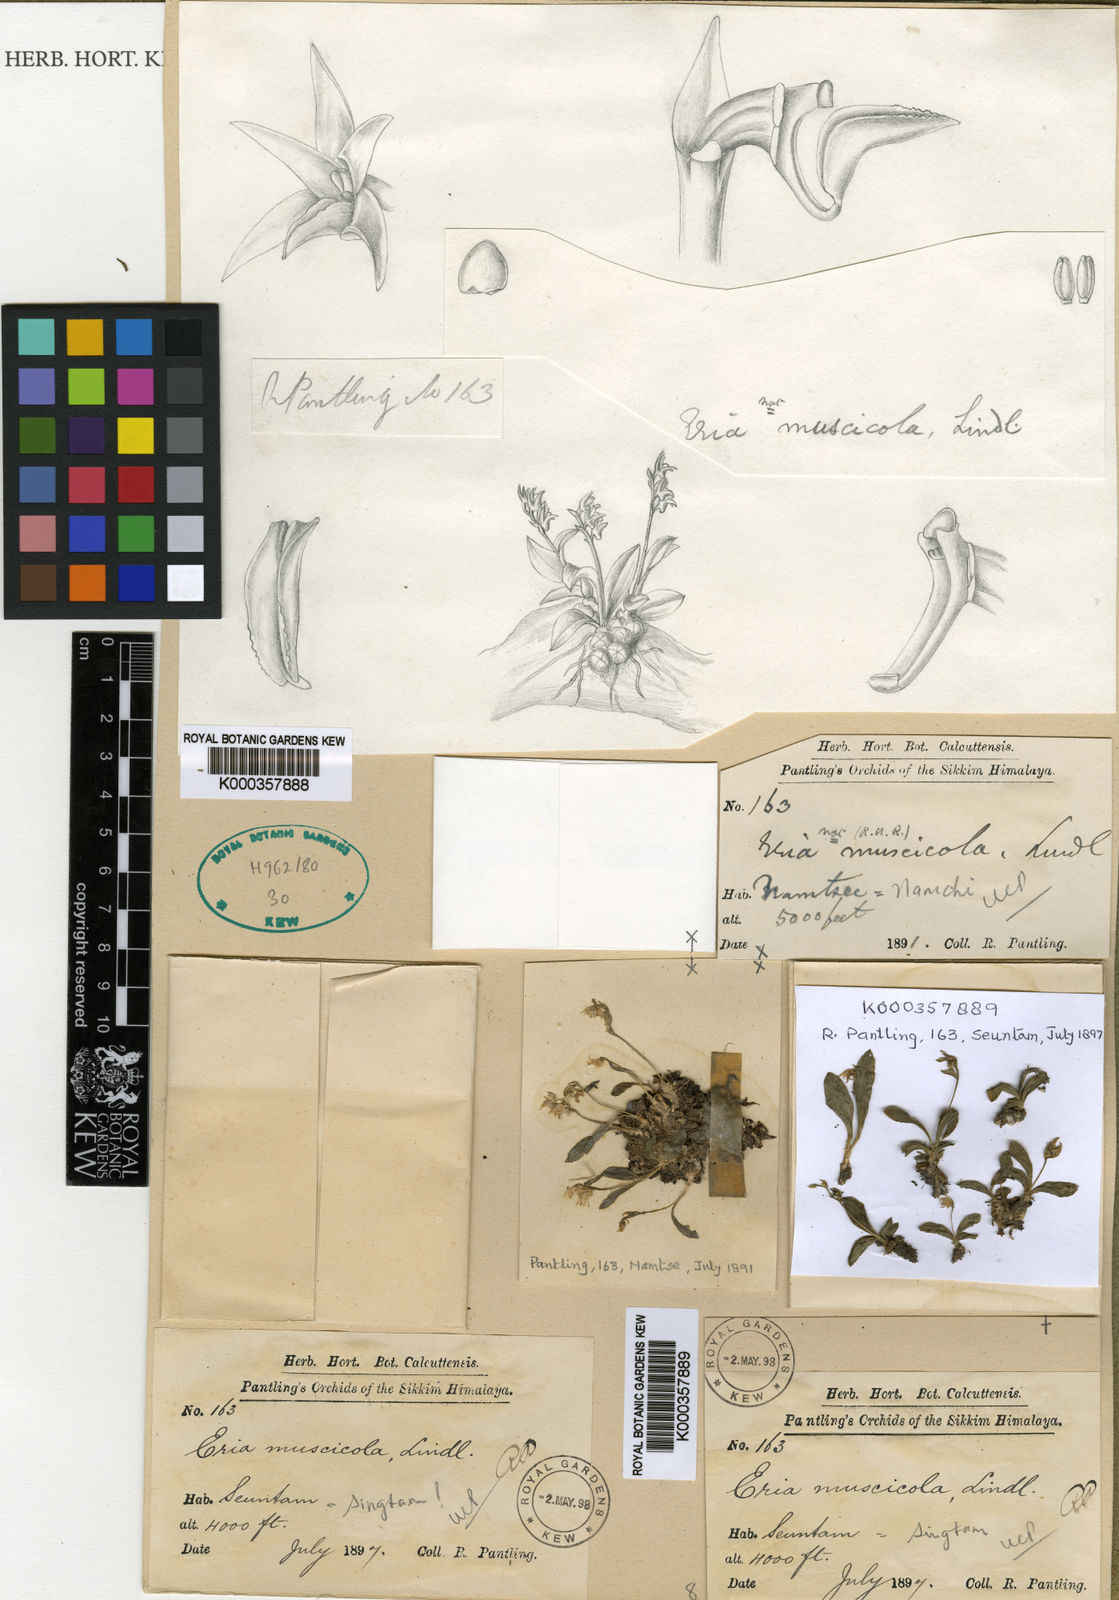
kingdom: Plantae
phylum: Tracheophyta
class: Liliopsida
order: Asparagales
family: Orchidaceae
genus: Porpax
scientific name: Porpax parviflorum
